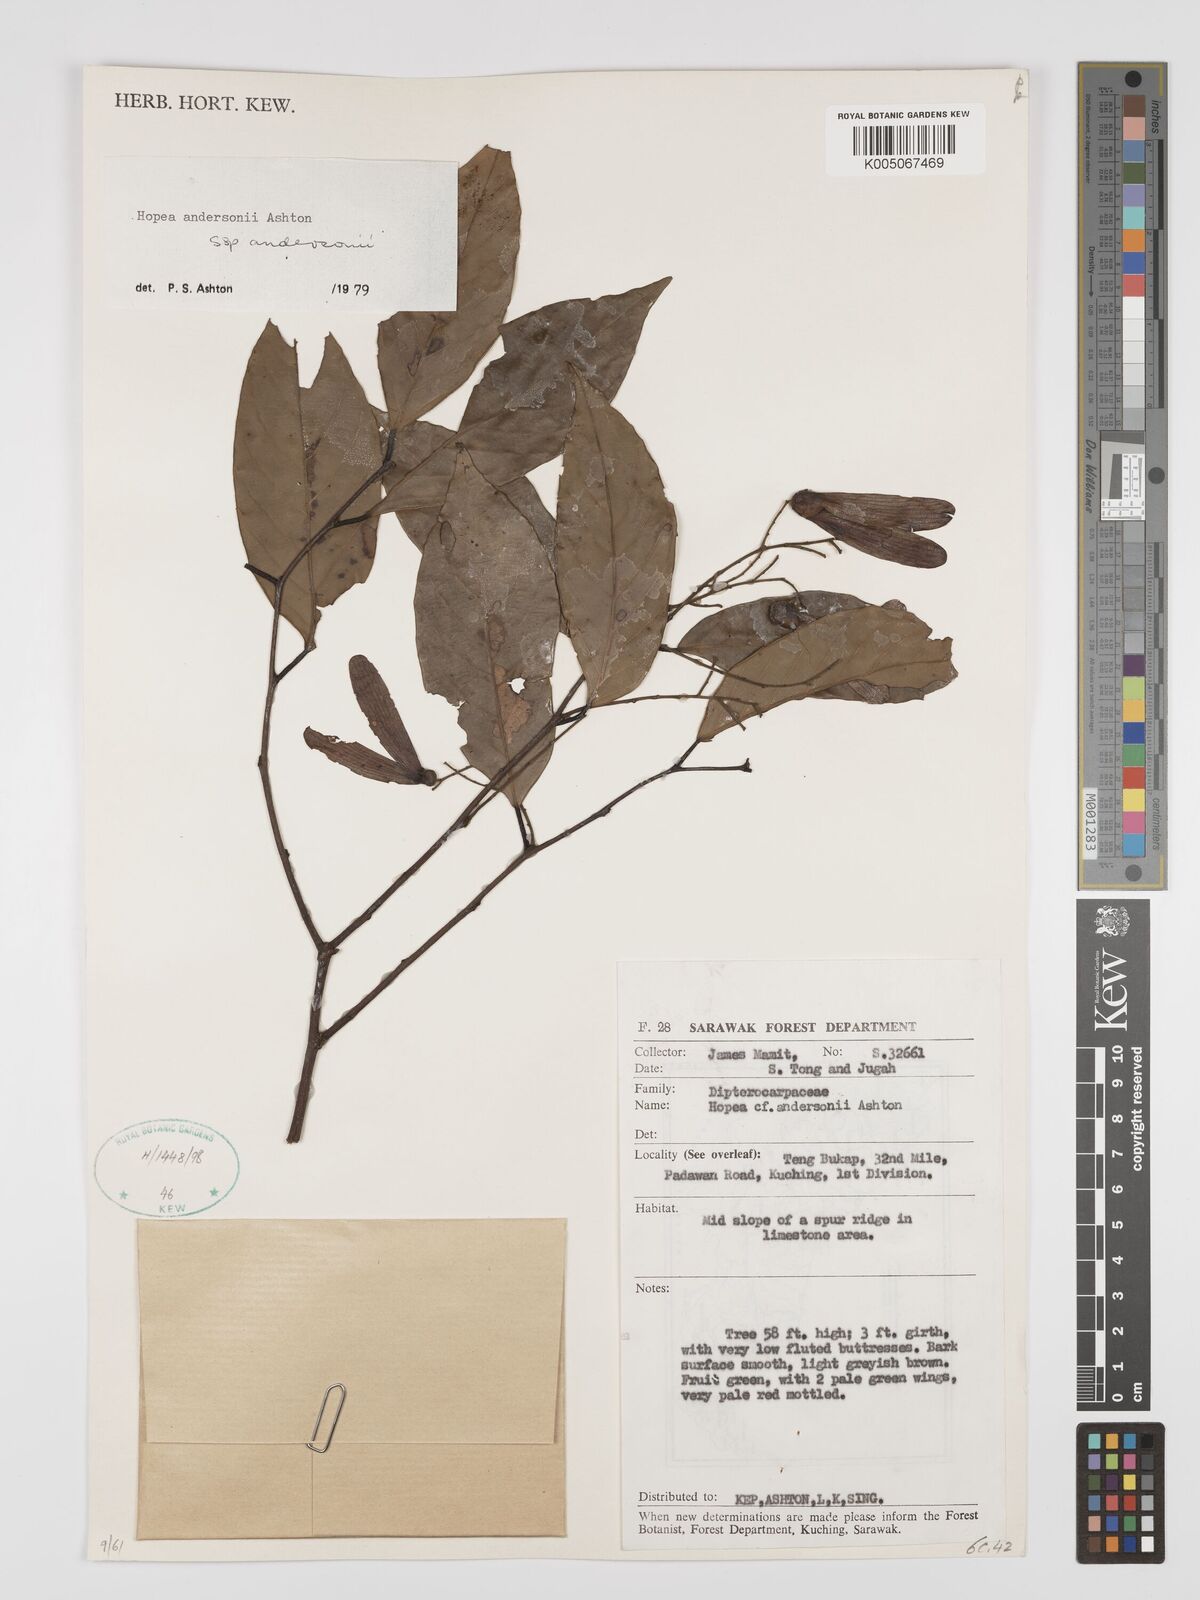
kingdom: Plantae
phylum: Tracheophyta
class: Magnoliopsida
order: Malvales
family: Dipterocarpaceae
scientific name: Dipterocarpaceae
